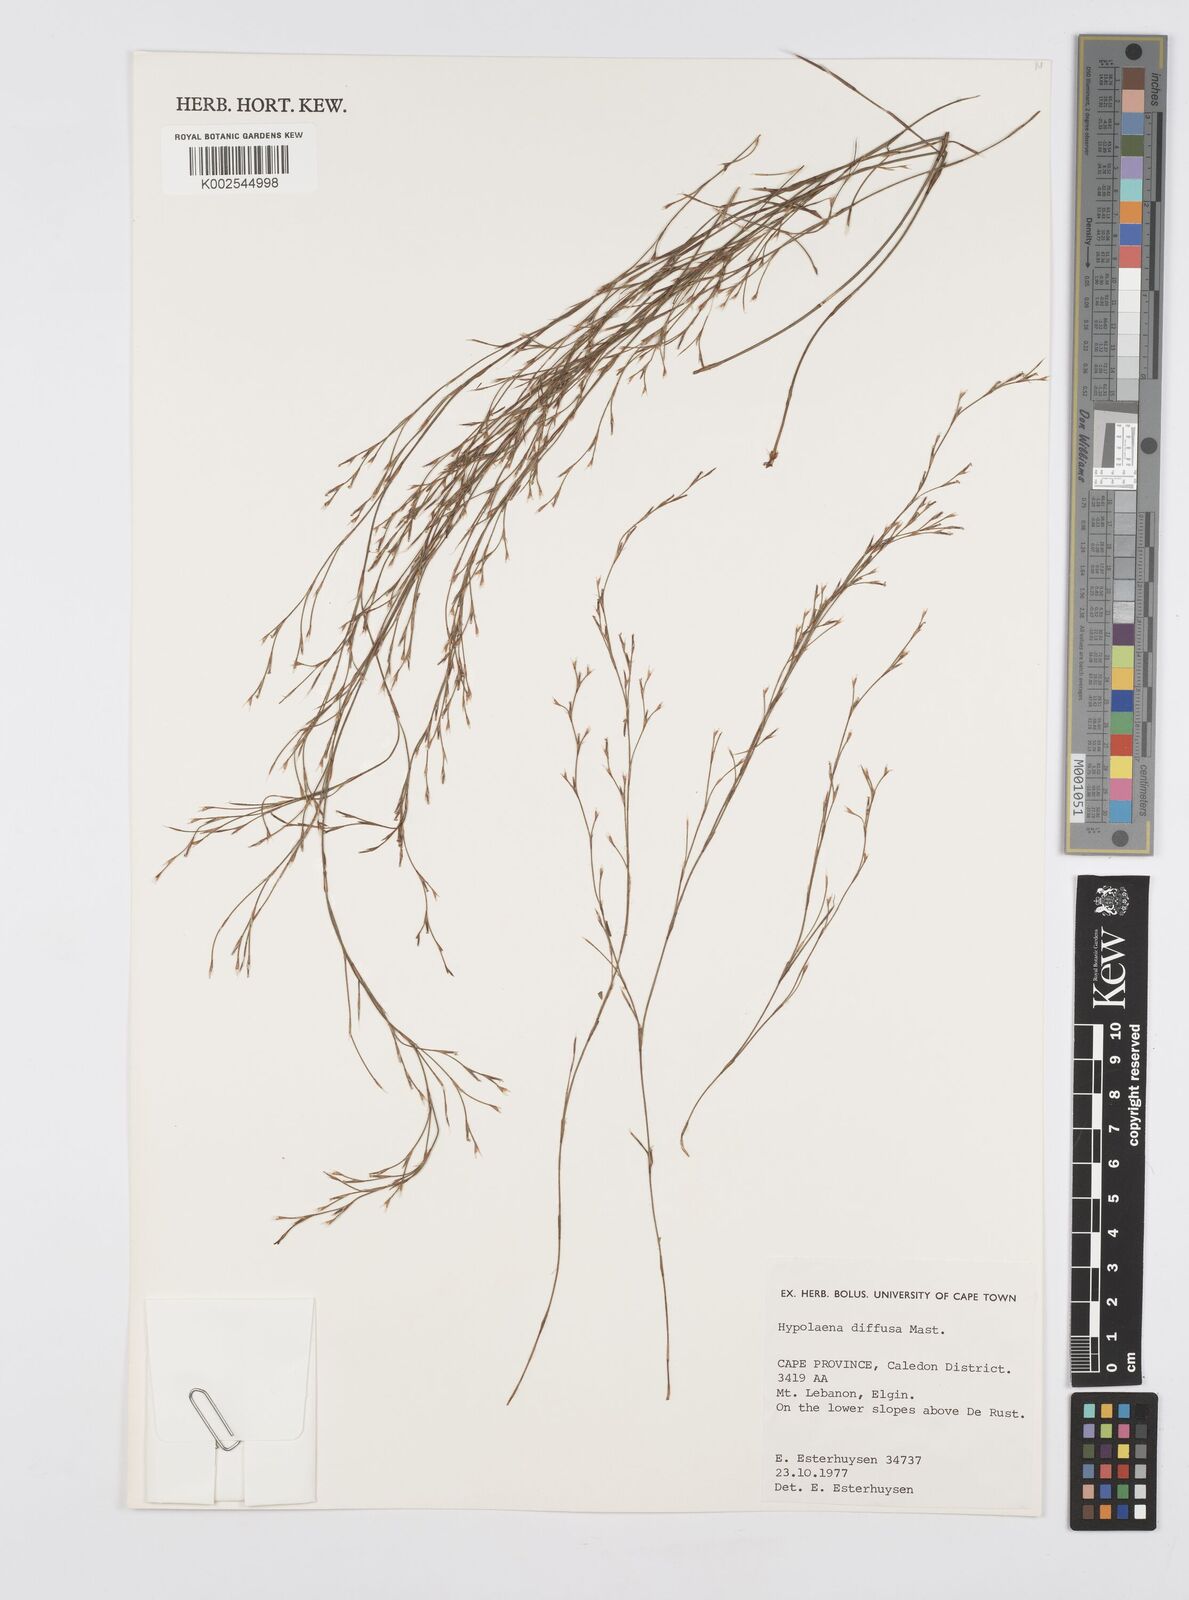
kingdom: Plantae
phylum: Tracheophyta
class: Liliopsida
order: Poales
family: Restionaceae
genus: Anthochortus
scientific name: Anthochortus crinalis
